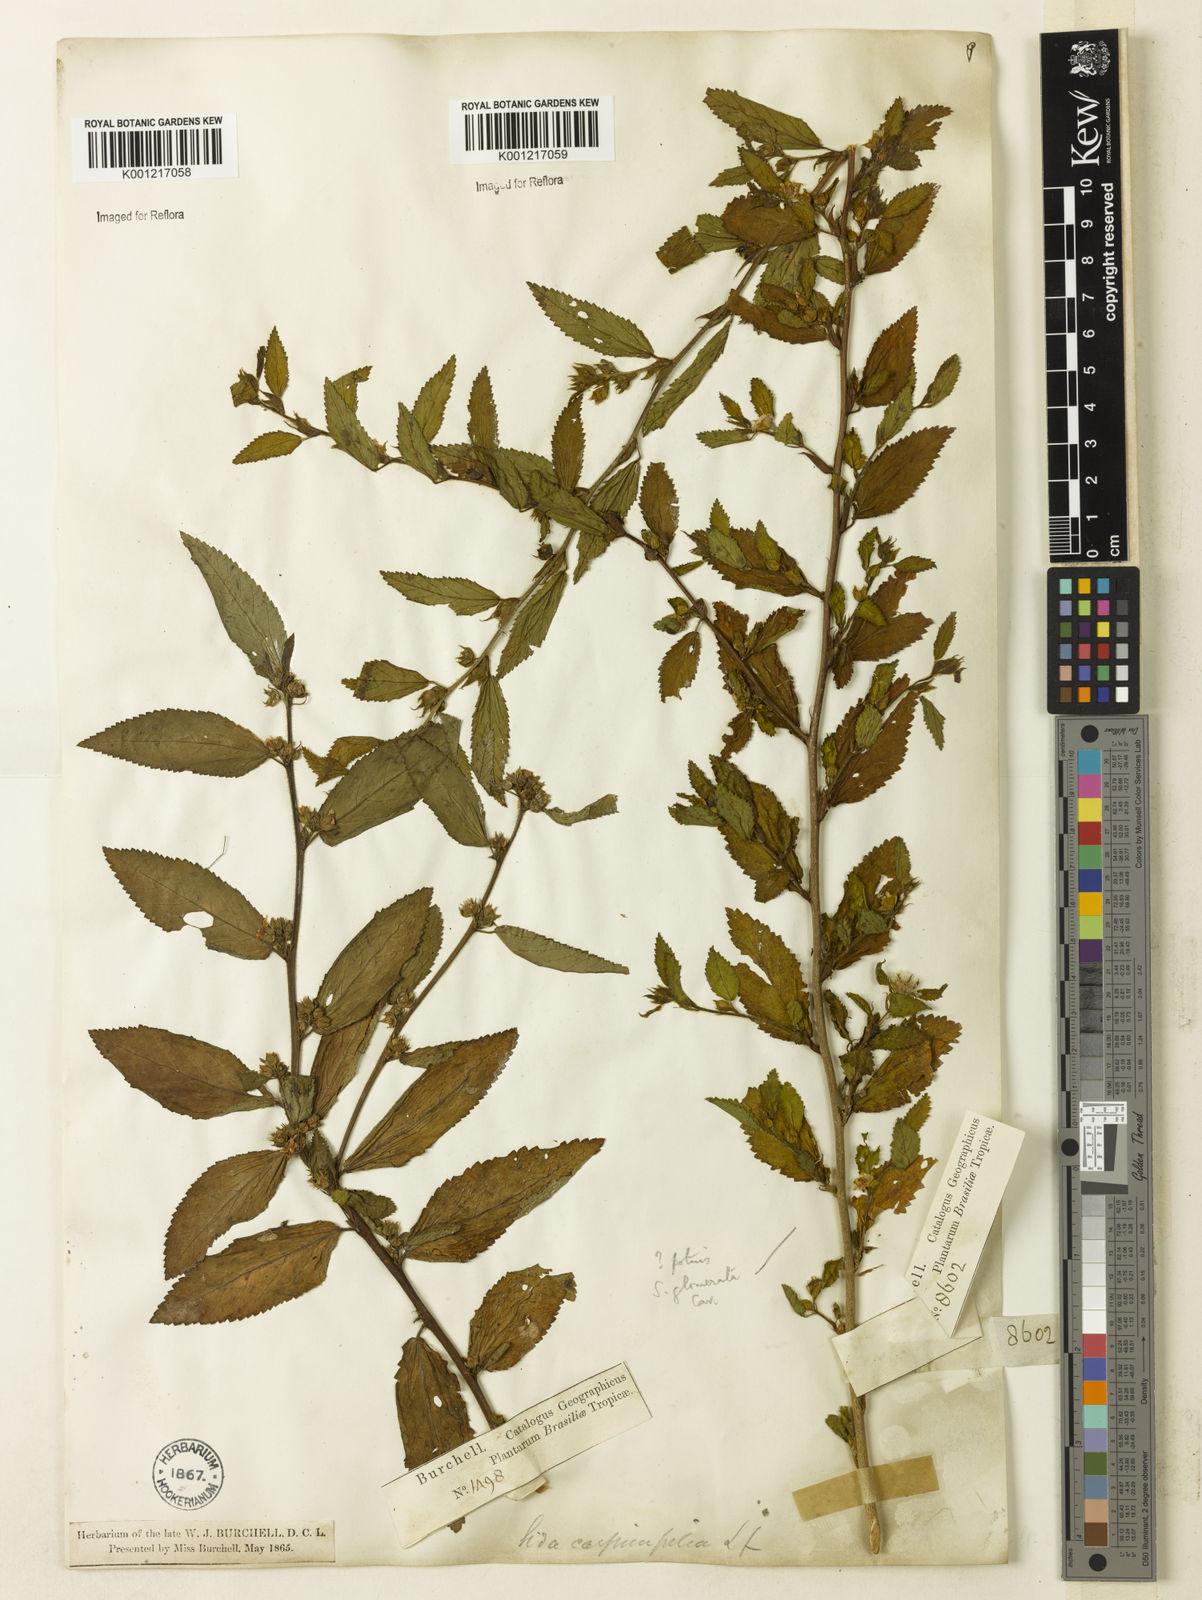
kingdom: Plantae
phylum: Tracheophyta
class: Magnoliopsida
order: Malvales
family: Malvaceae
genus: Sida
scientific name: Sida planicaulis
